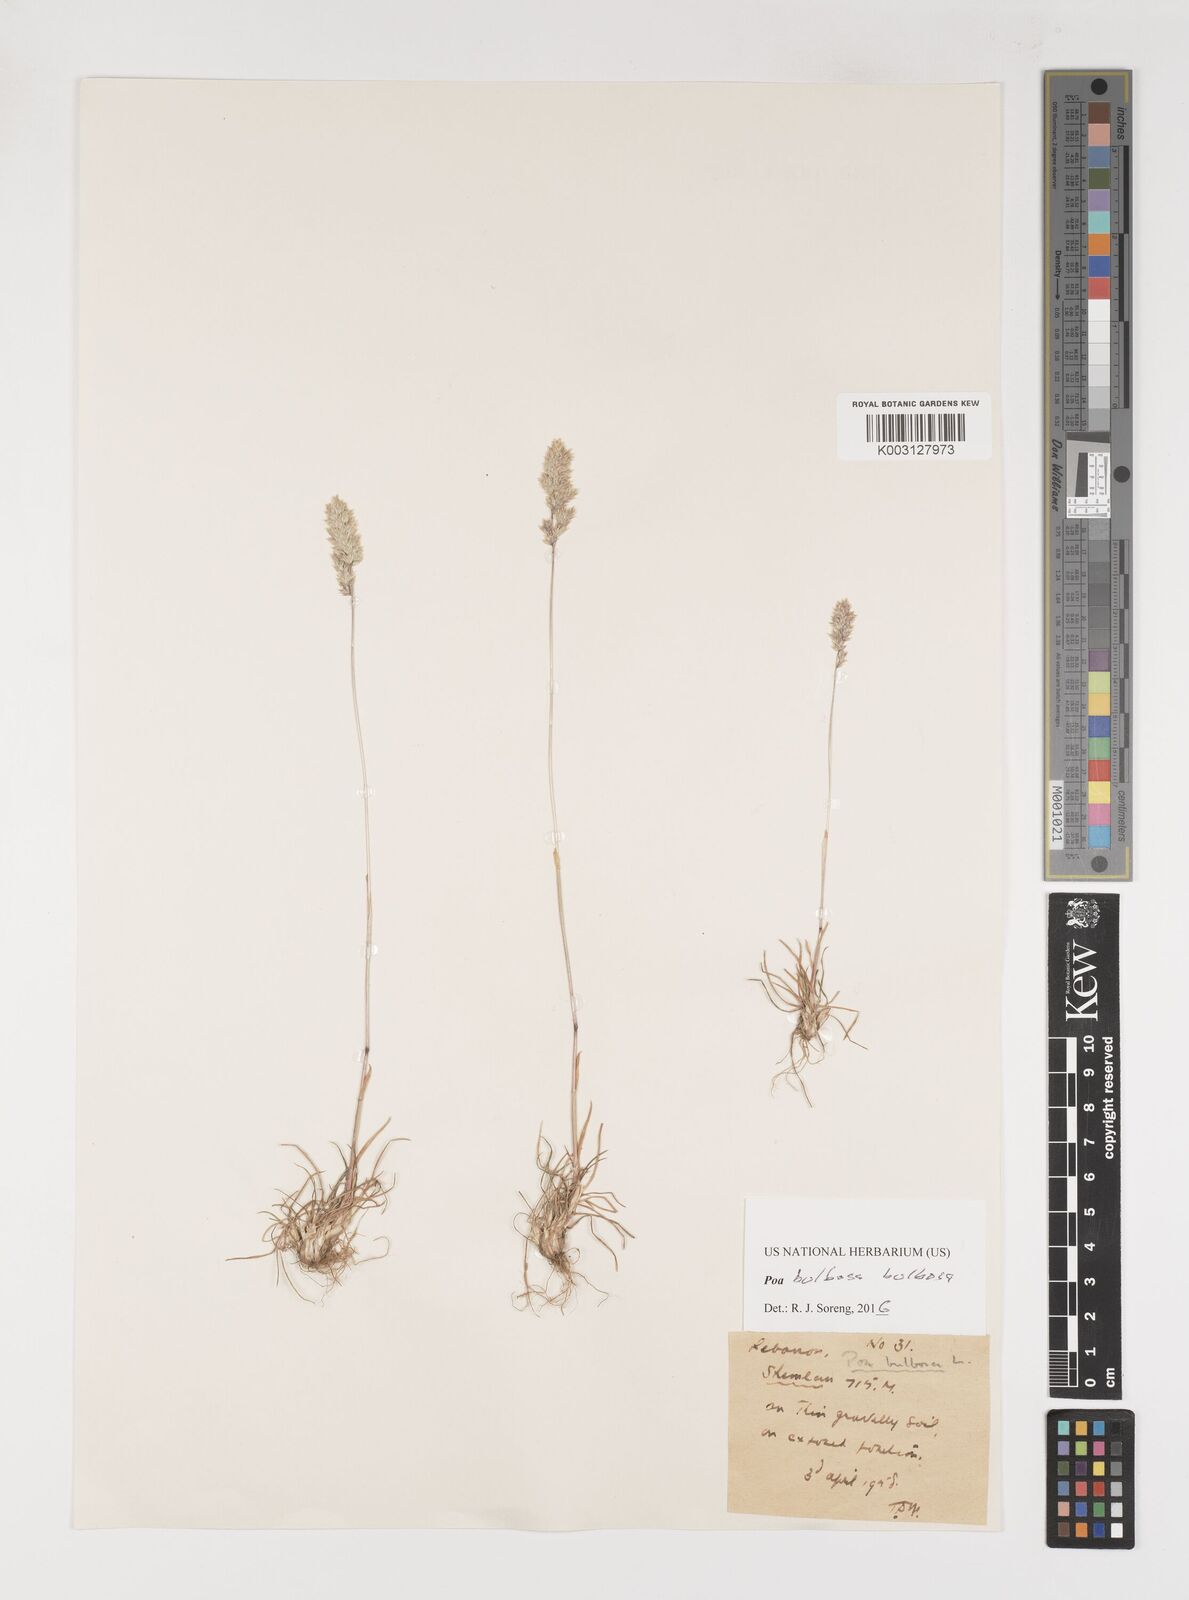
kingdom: Plantae
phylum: Tracheophyta
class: Liliopsida
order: Poales
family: Poaceae
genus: Poa
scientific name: Poa
